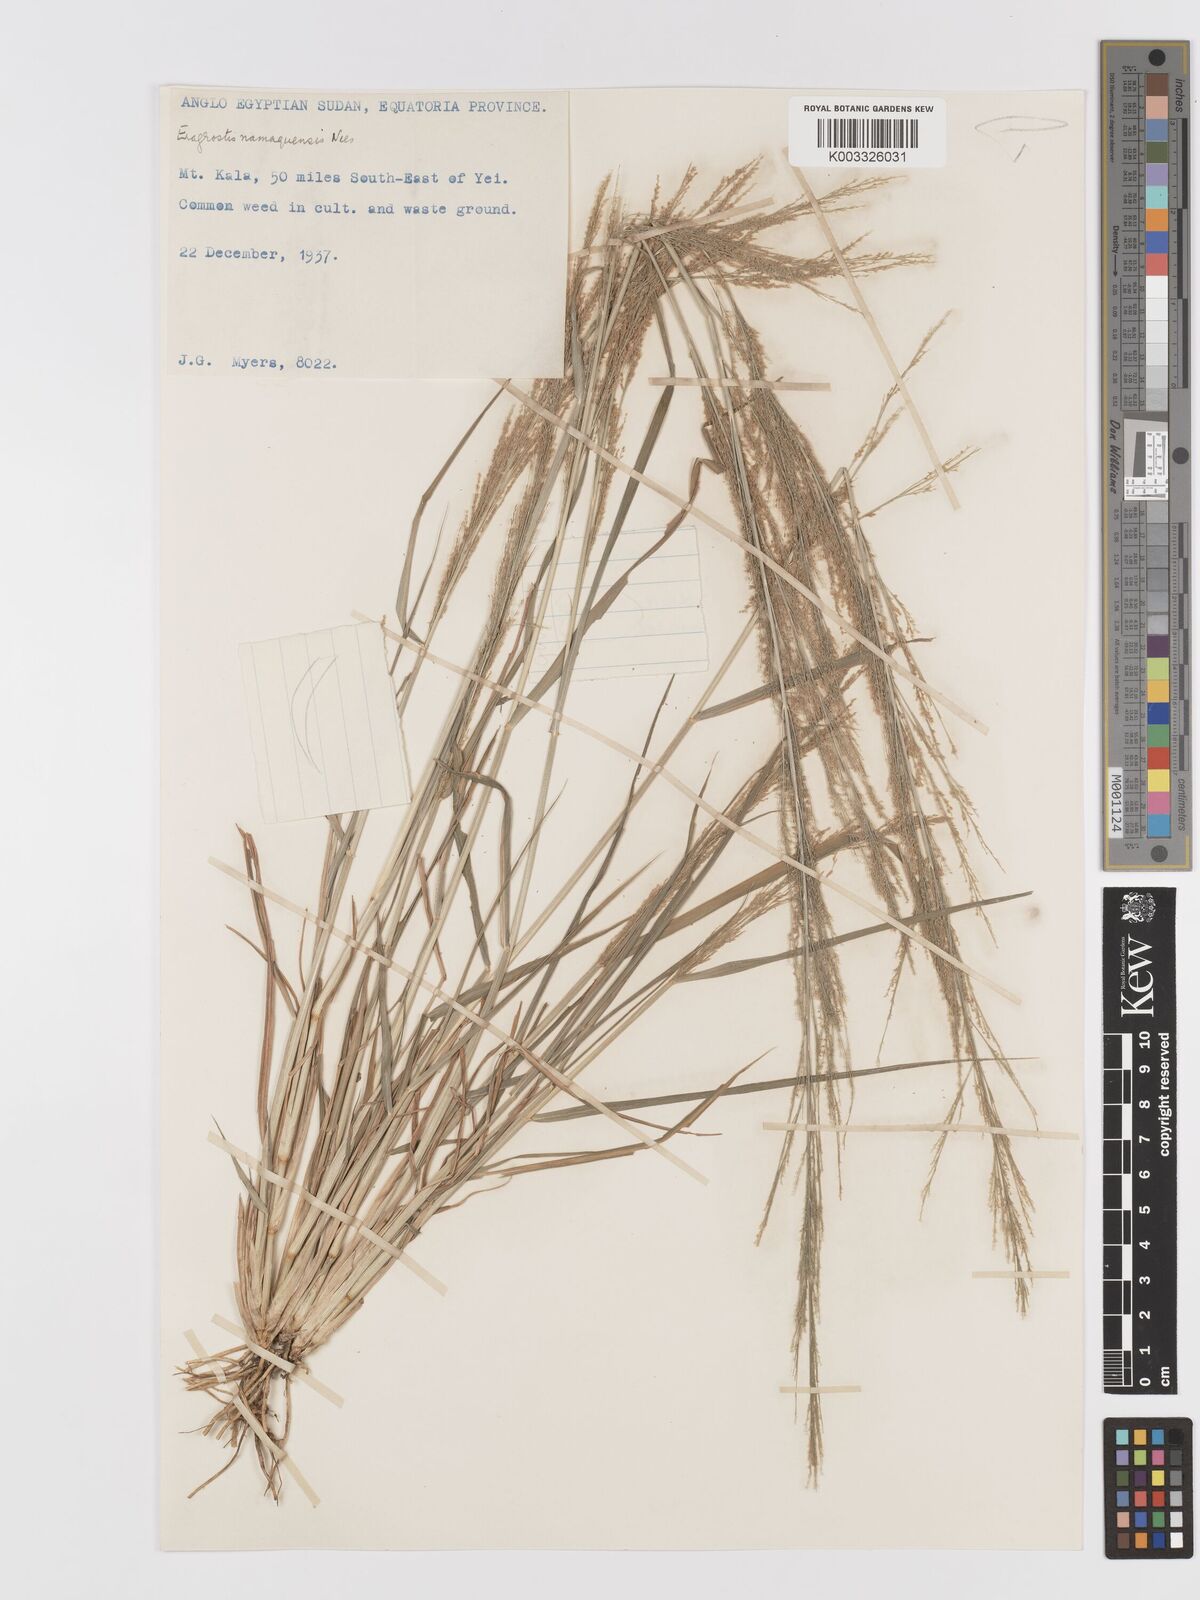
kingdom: Plantae
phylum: Tracheophyta
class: Liliopsida
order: Poales
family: Poaceae
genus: Eragrostis
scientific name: Eragrostis japonica
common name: Pond lovegrass
